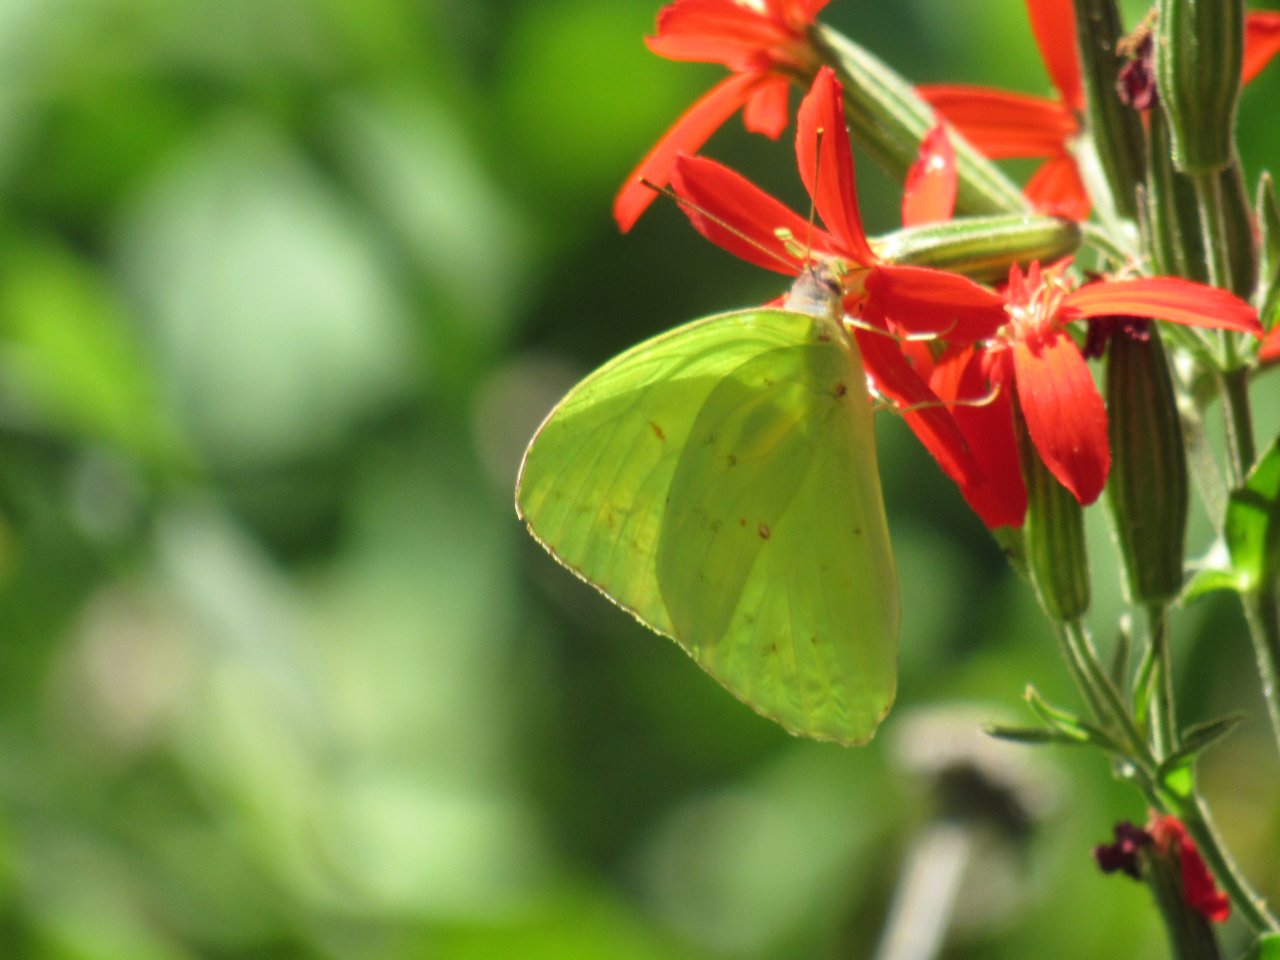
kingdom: Animalia
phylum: Arthropoda
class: Insecta
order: Lepidoptera
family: Pieridae
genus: Phoebis
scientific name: Phoebis sennae
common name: Cloudless Sulphur
